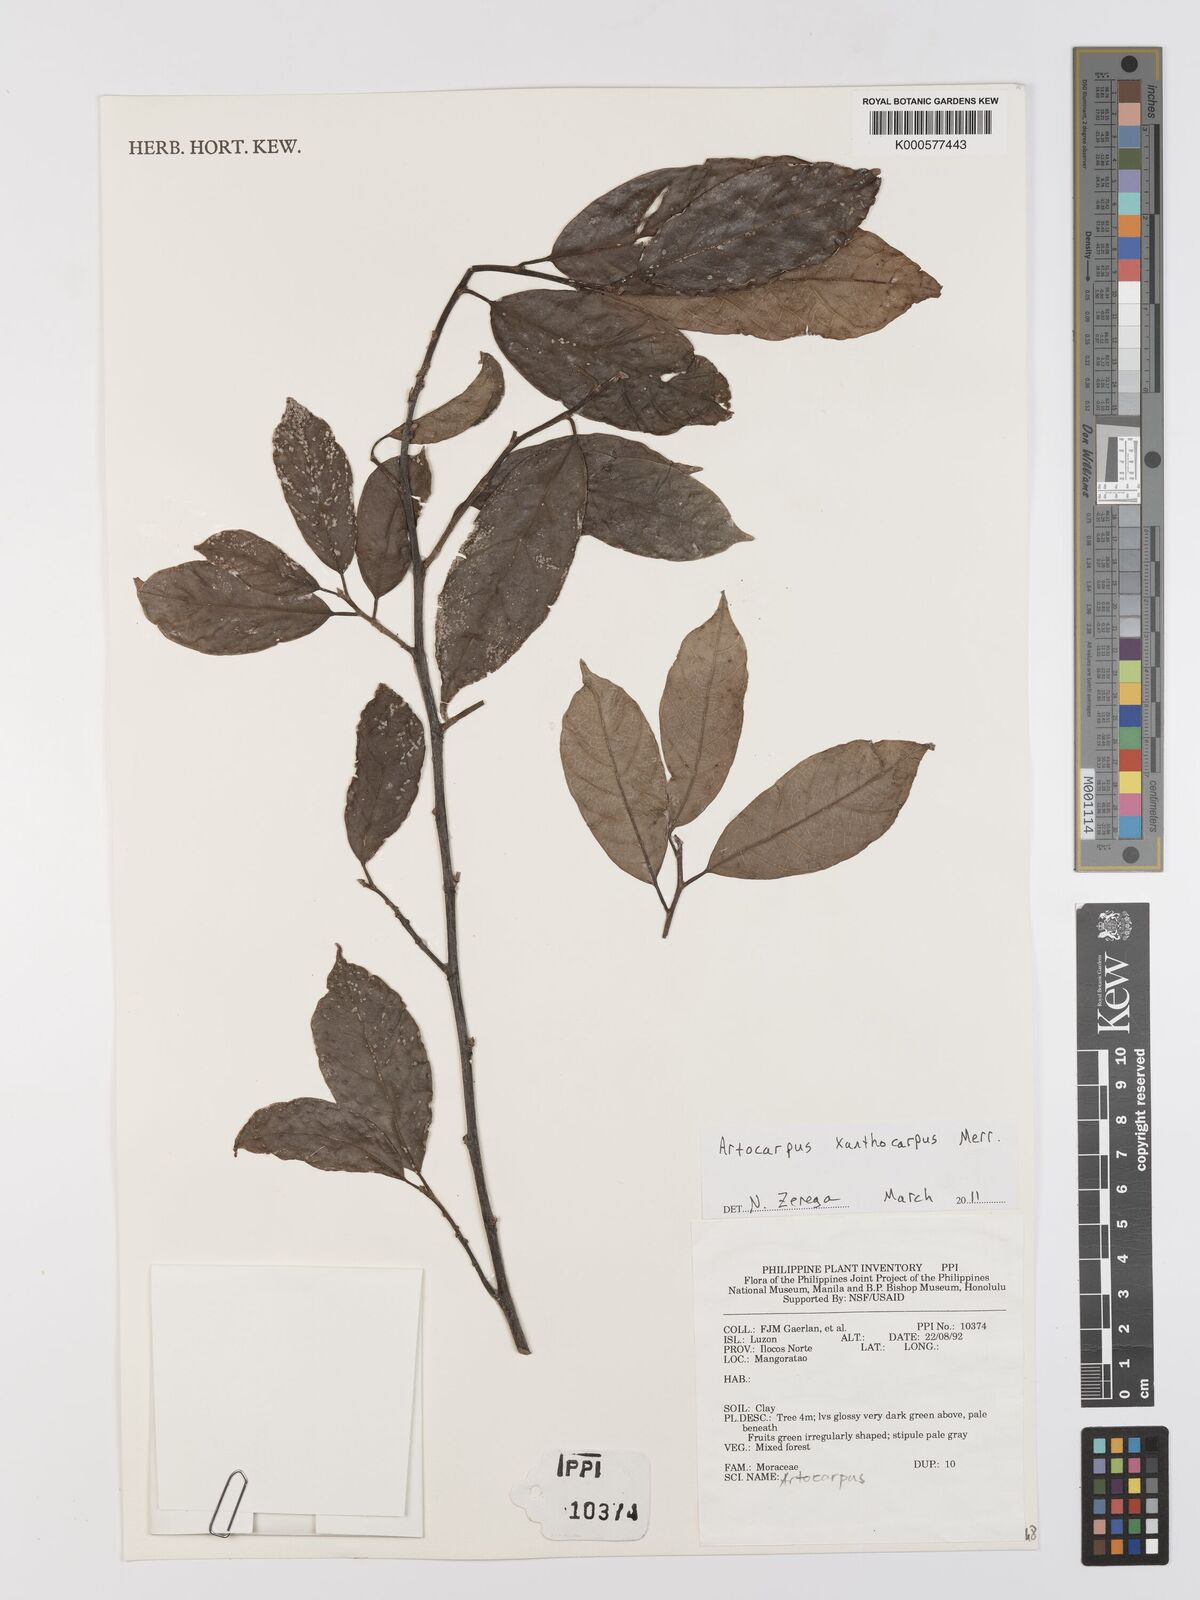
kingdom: Plantae
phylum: Tracheophyta
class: Magnoliopsida
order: Rosales
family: Moraceae
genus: Artocarpus
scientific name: Artocarpus lamellosus
